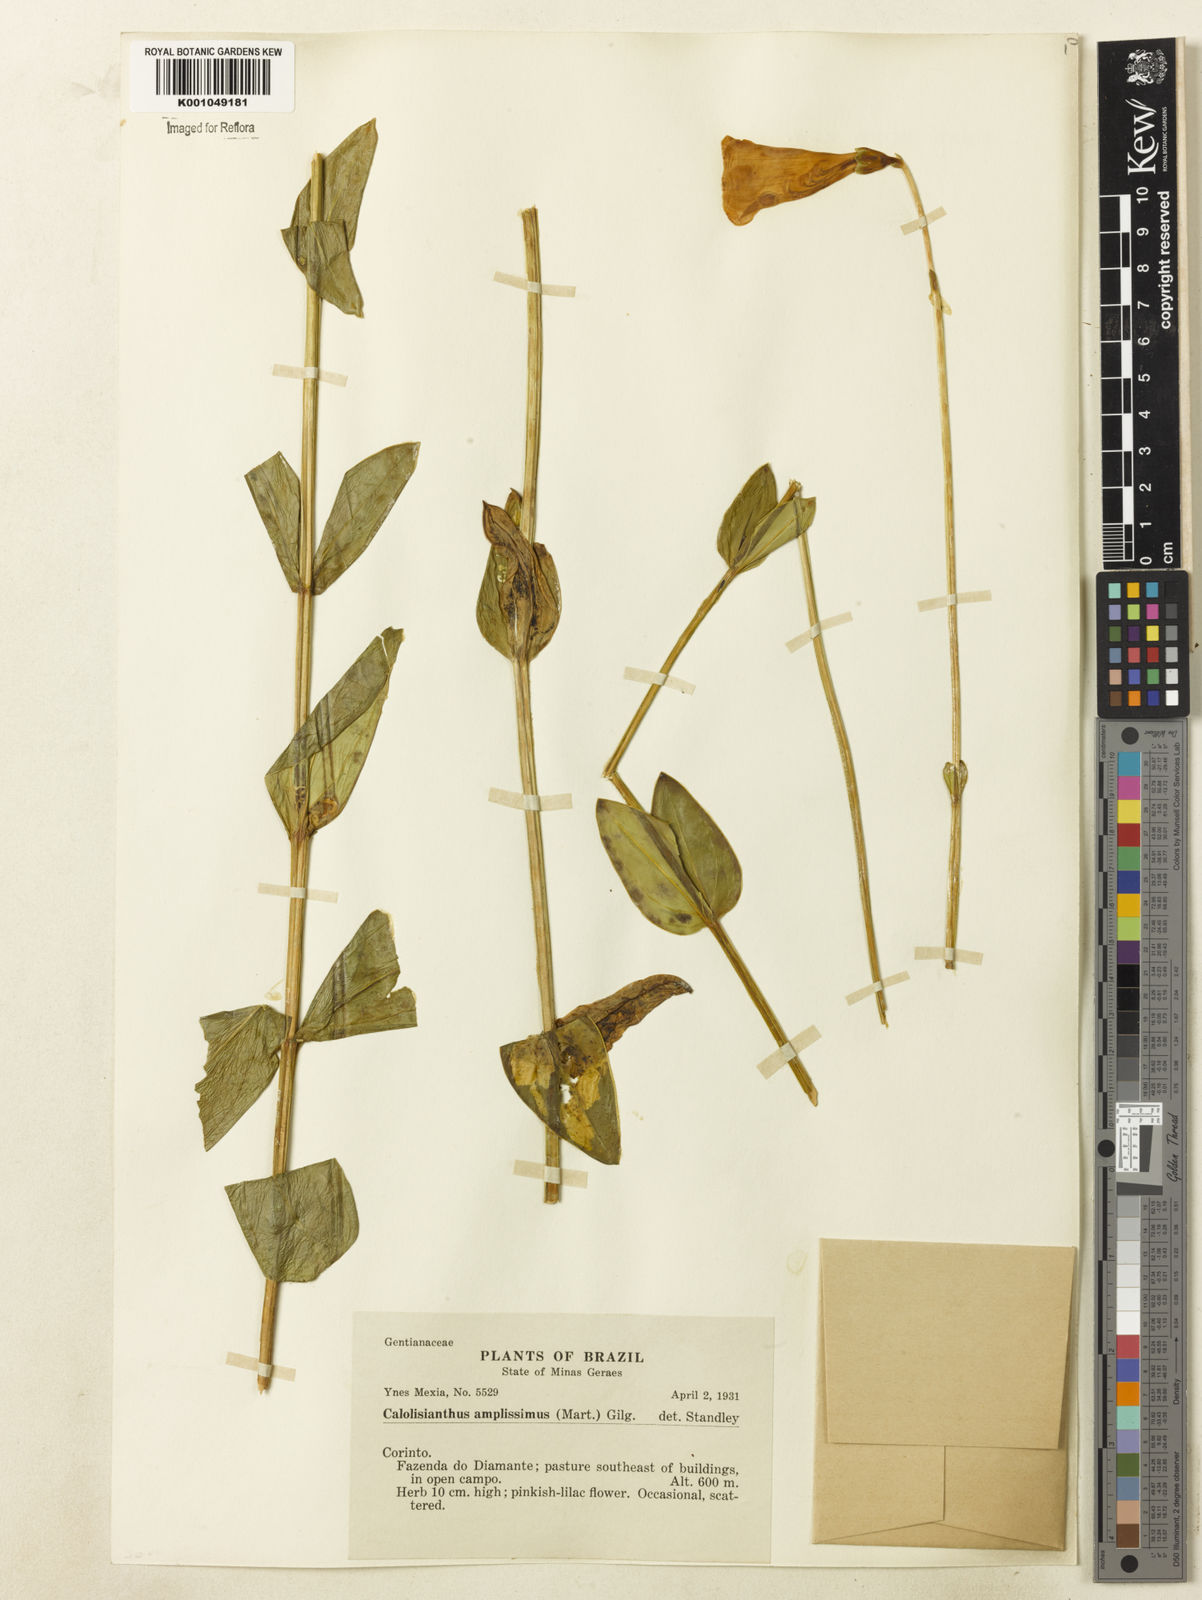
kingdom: Plantae
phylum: Tracheophyta
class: Magnoliopsida
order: Gentianales
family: Gentianaceae
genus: Calolisianthus
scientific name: Calolisianthus amplissimus
